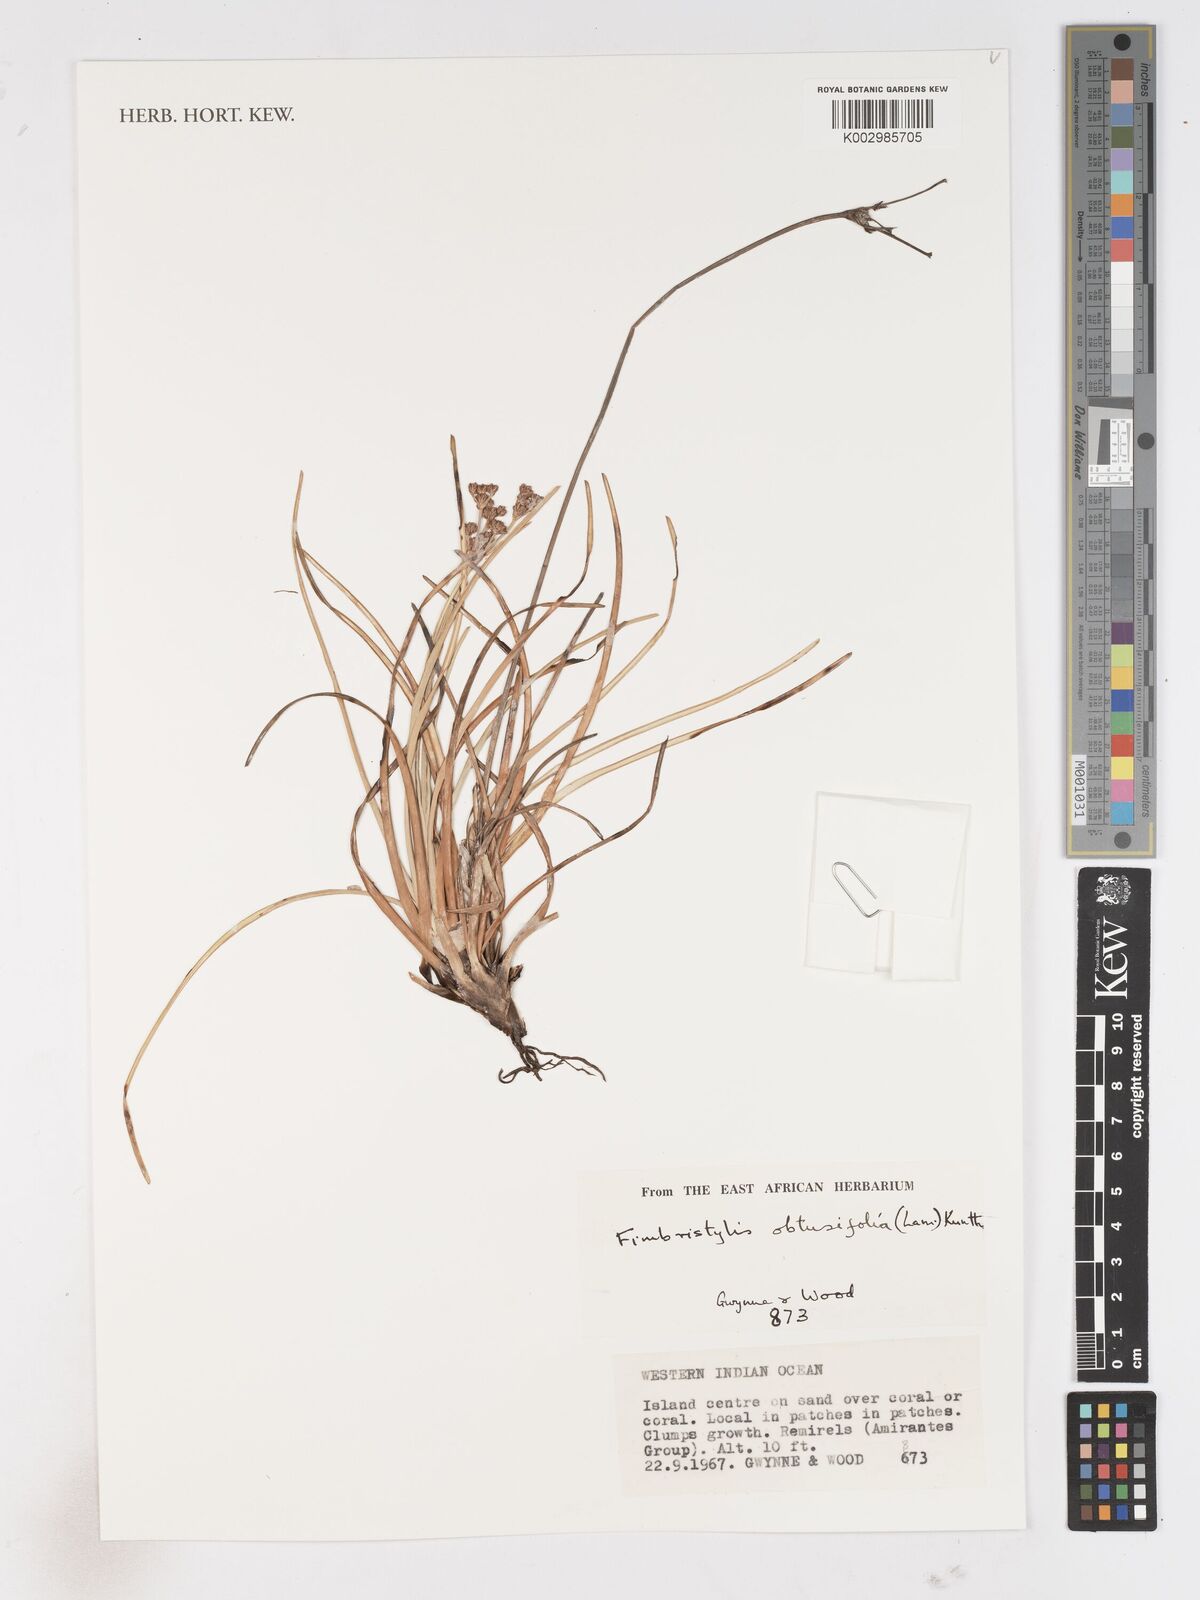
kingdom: Plantae
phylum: Tracheophyta
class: Liliopsida
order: Poales
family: Cyperaceae
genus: Fimbristylis
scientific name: Fimbristylis cymosa
